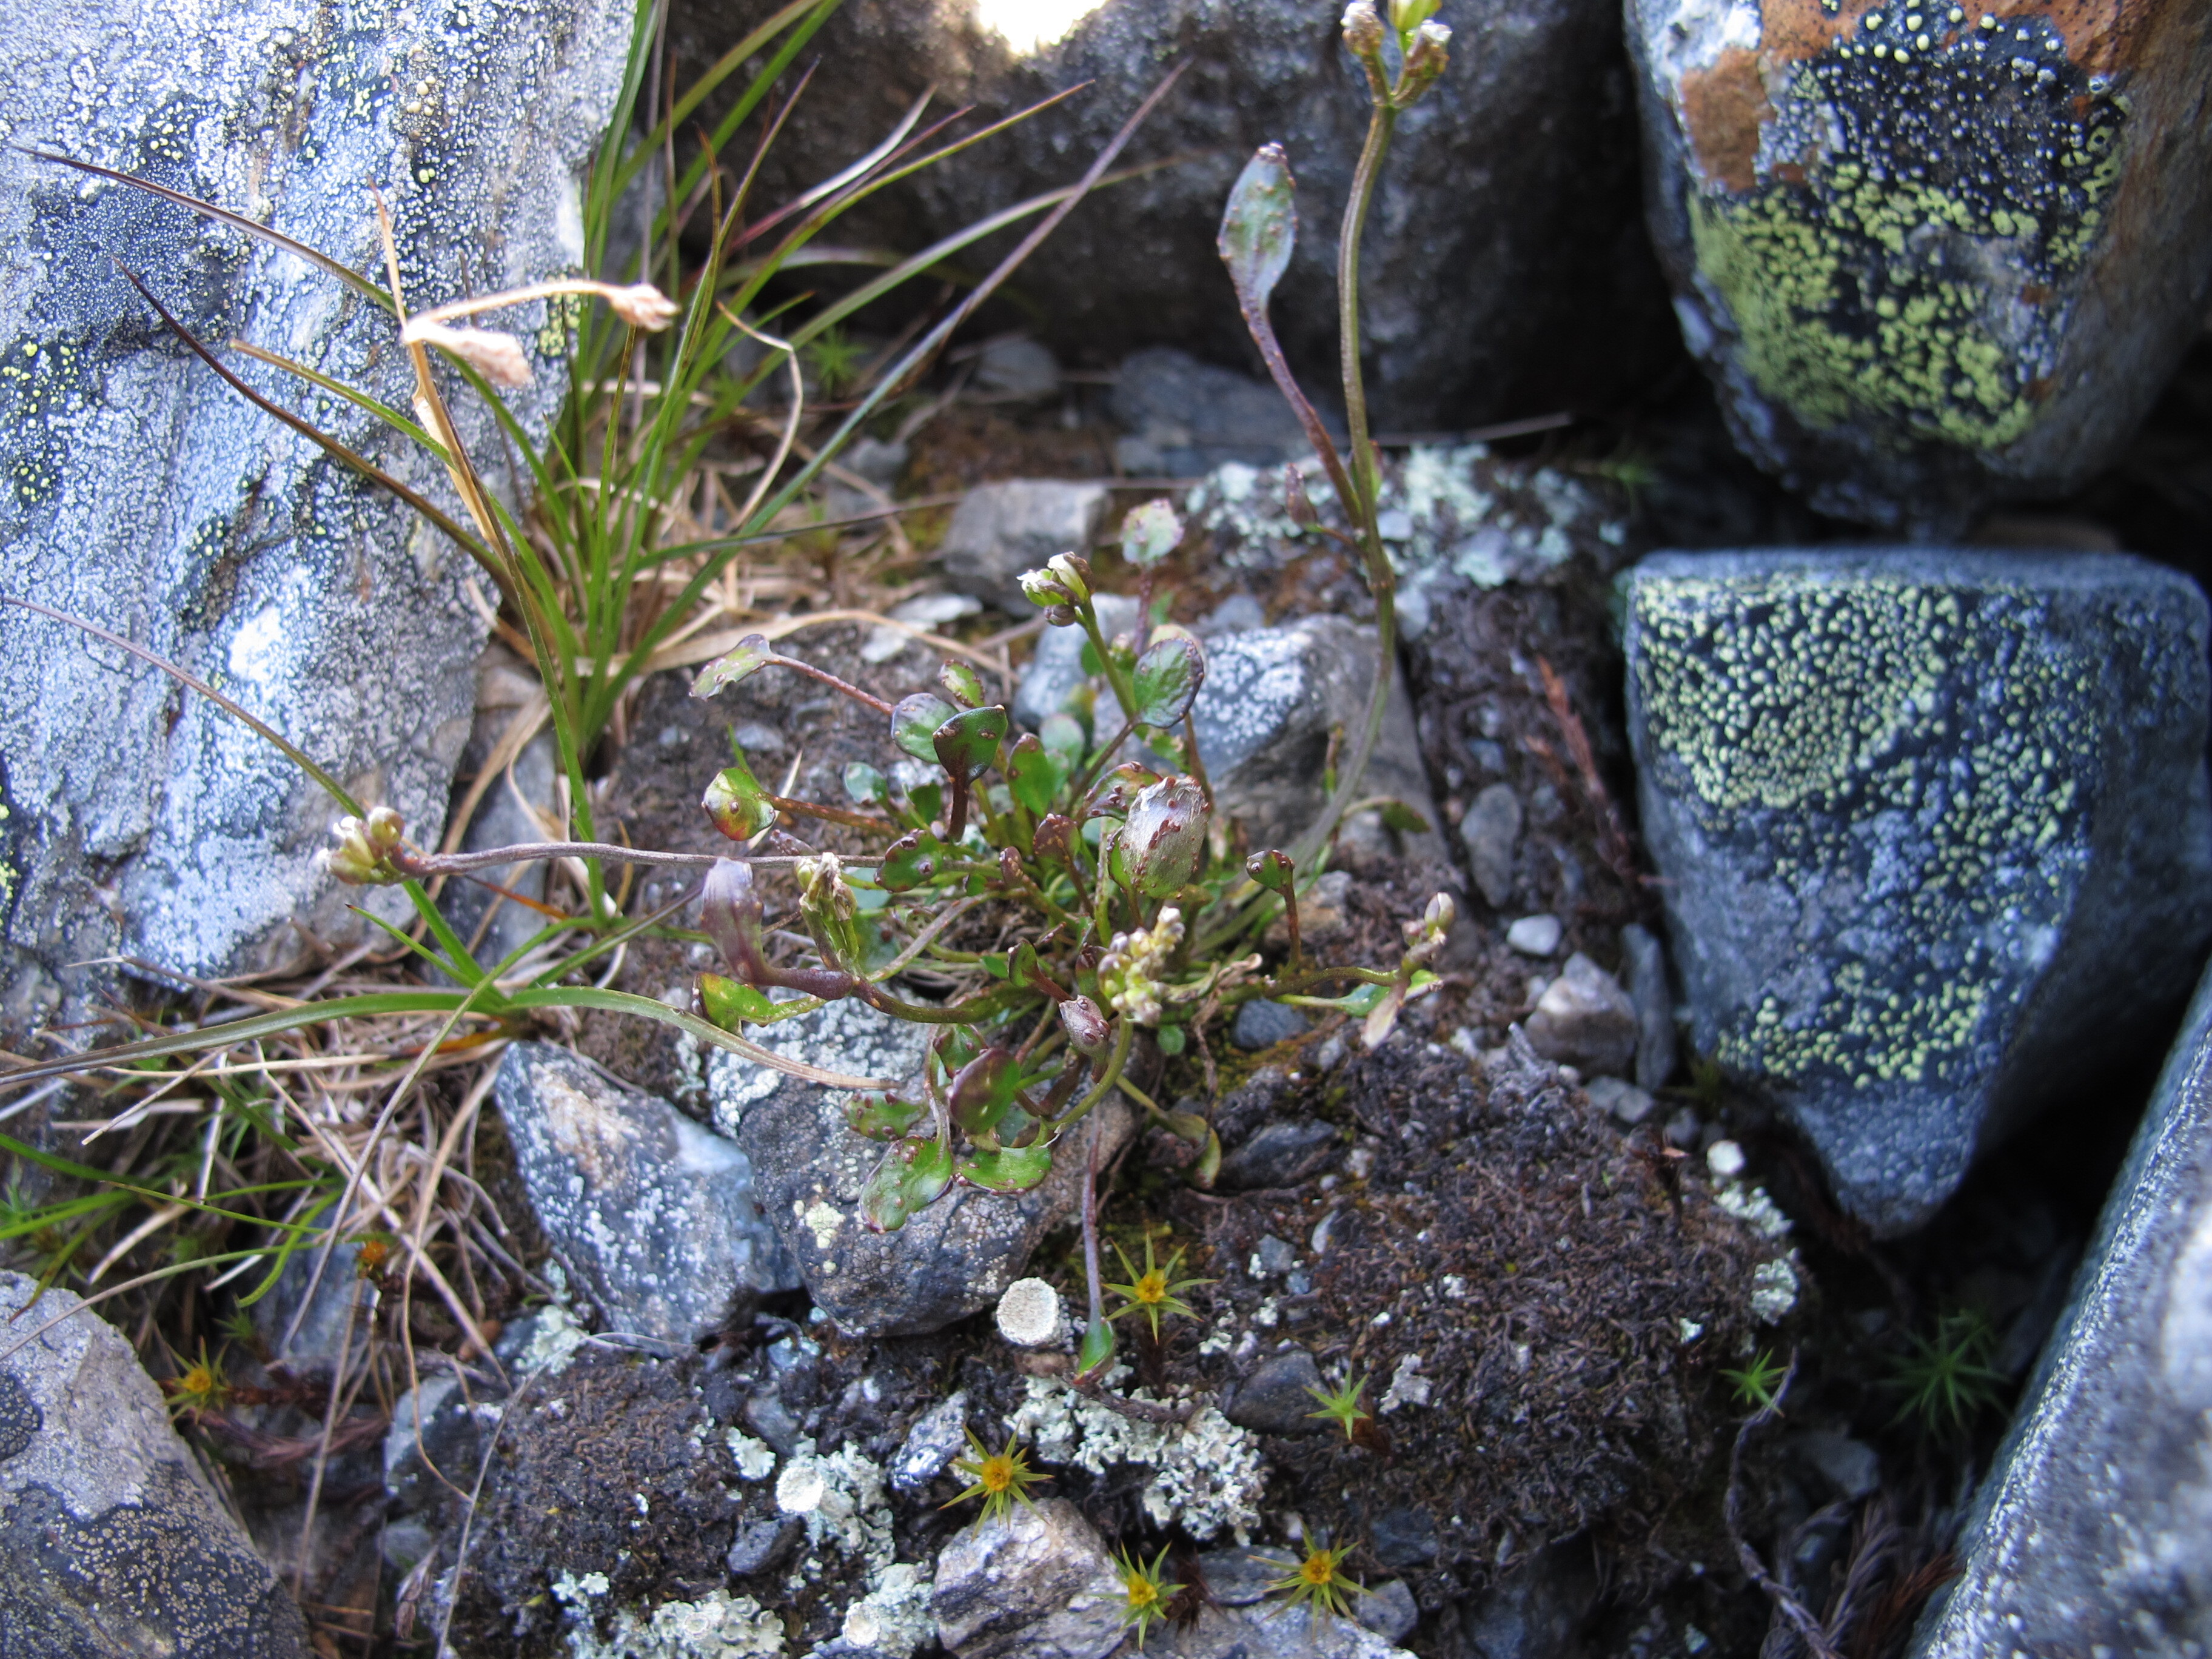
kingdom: Plantae
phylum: Tracheophyta
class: Magnoliopsida
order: Brassicales
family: Brassicaceae
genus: Cardamine
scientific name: Cardamine bellidifolia
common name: Alpine bittercress
